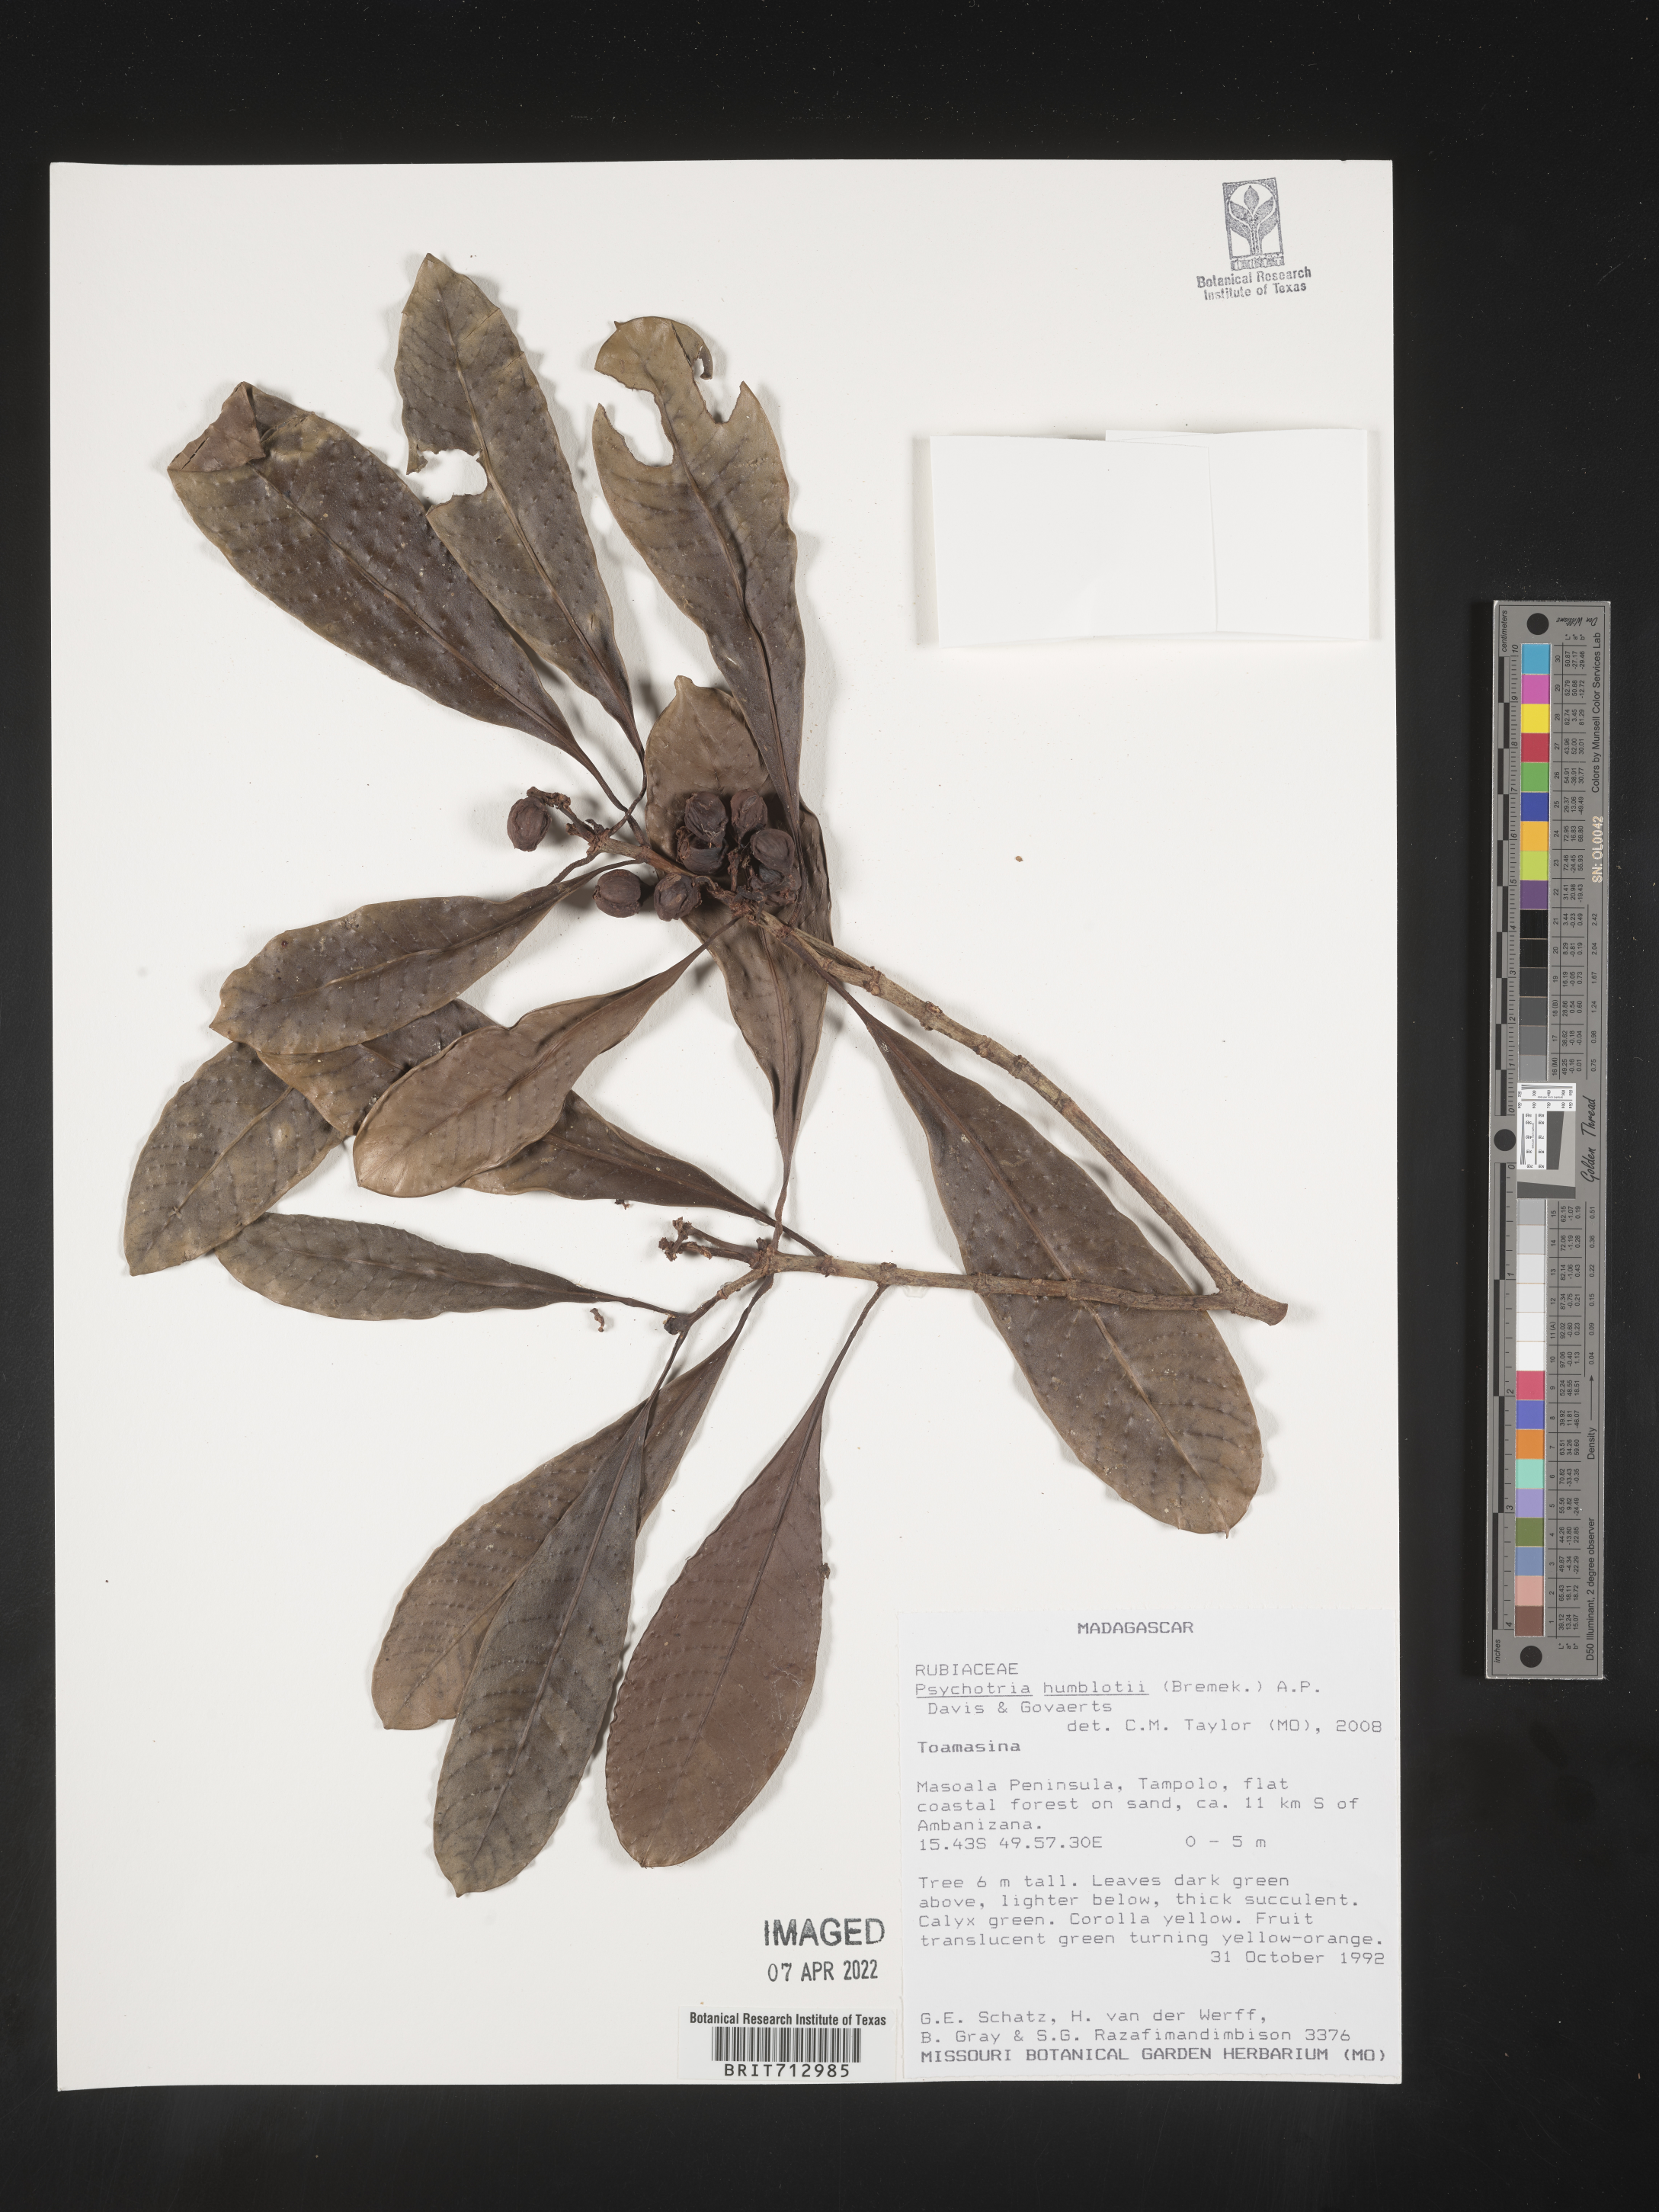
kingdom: Plantae
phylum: Tracheophyta
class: Magnoliopsida
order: Gentianales
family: Rubiaceae
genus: Psychotria
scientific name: Psychotria
